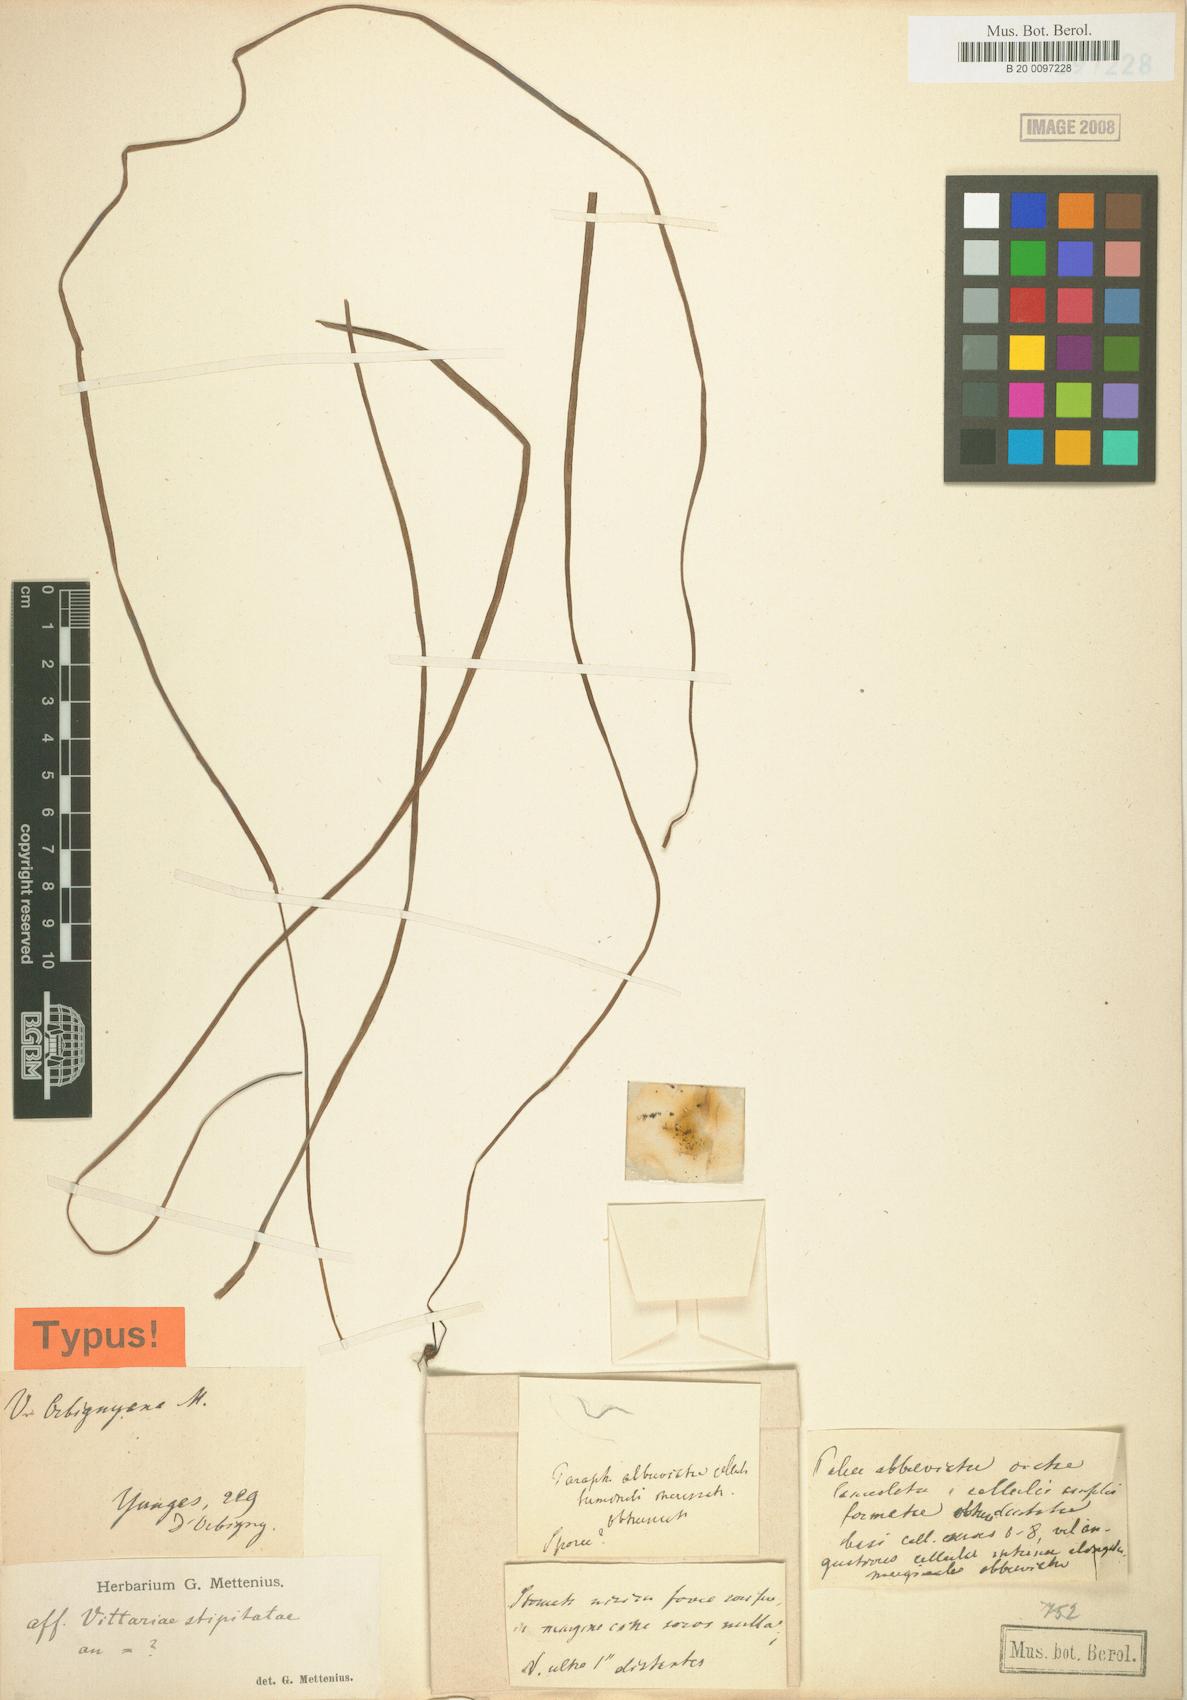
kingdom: Plantae
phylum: Tracheophyta
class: Polypodiopsida
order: Polypodiales
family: Pteridaceae
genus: Radiovittaria
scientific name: Radiovittaria moritziana
